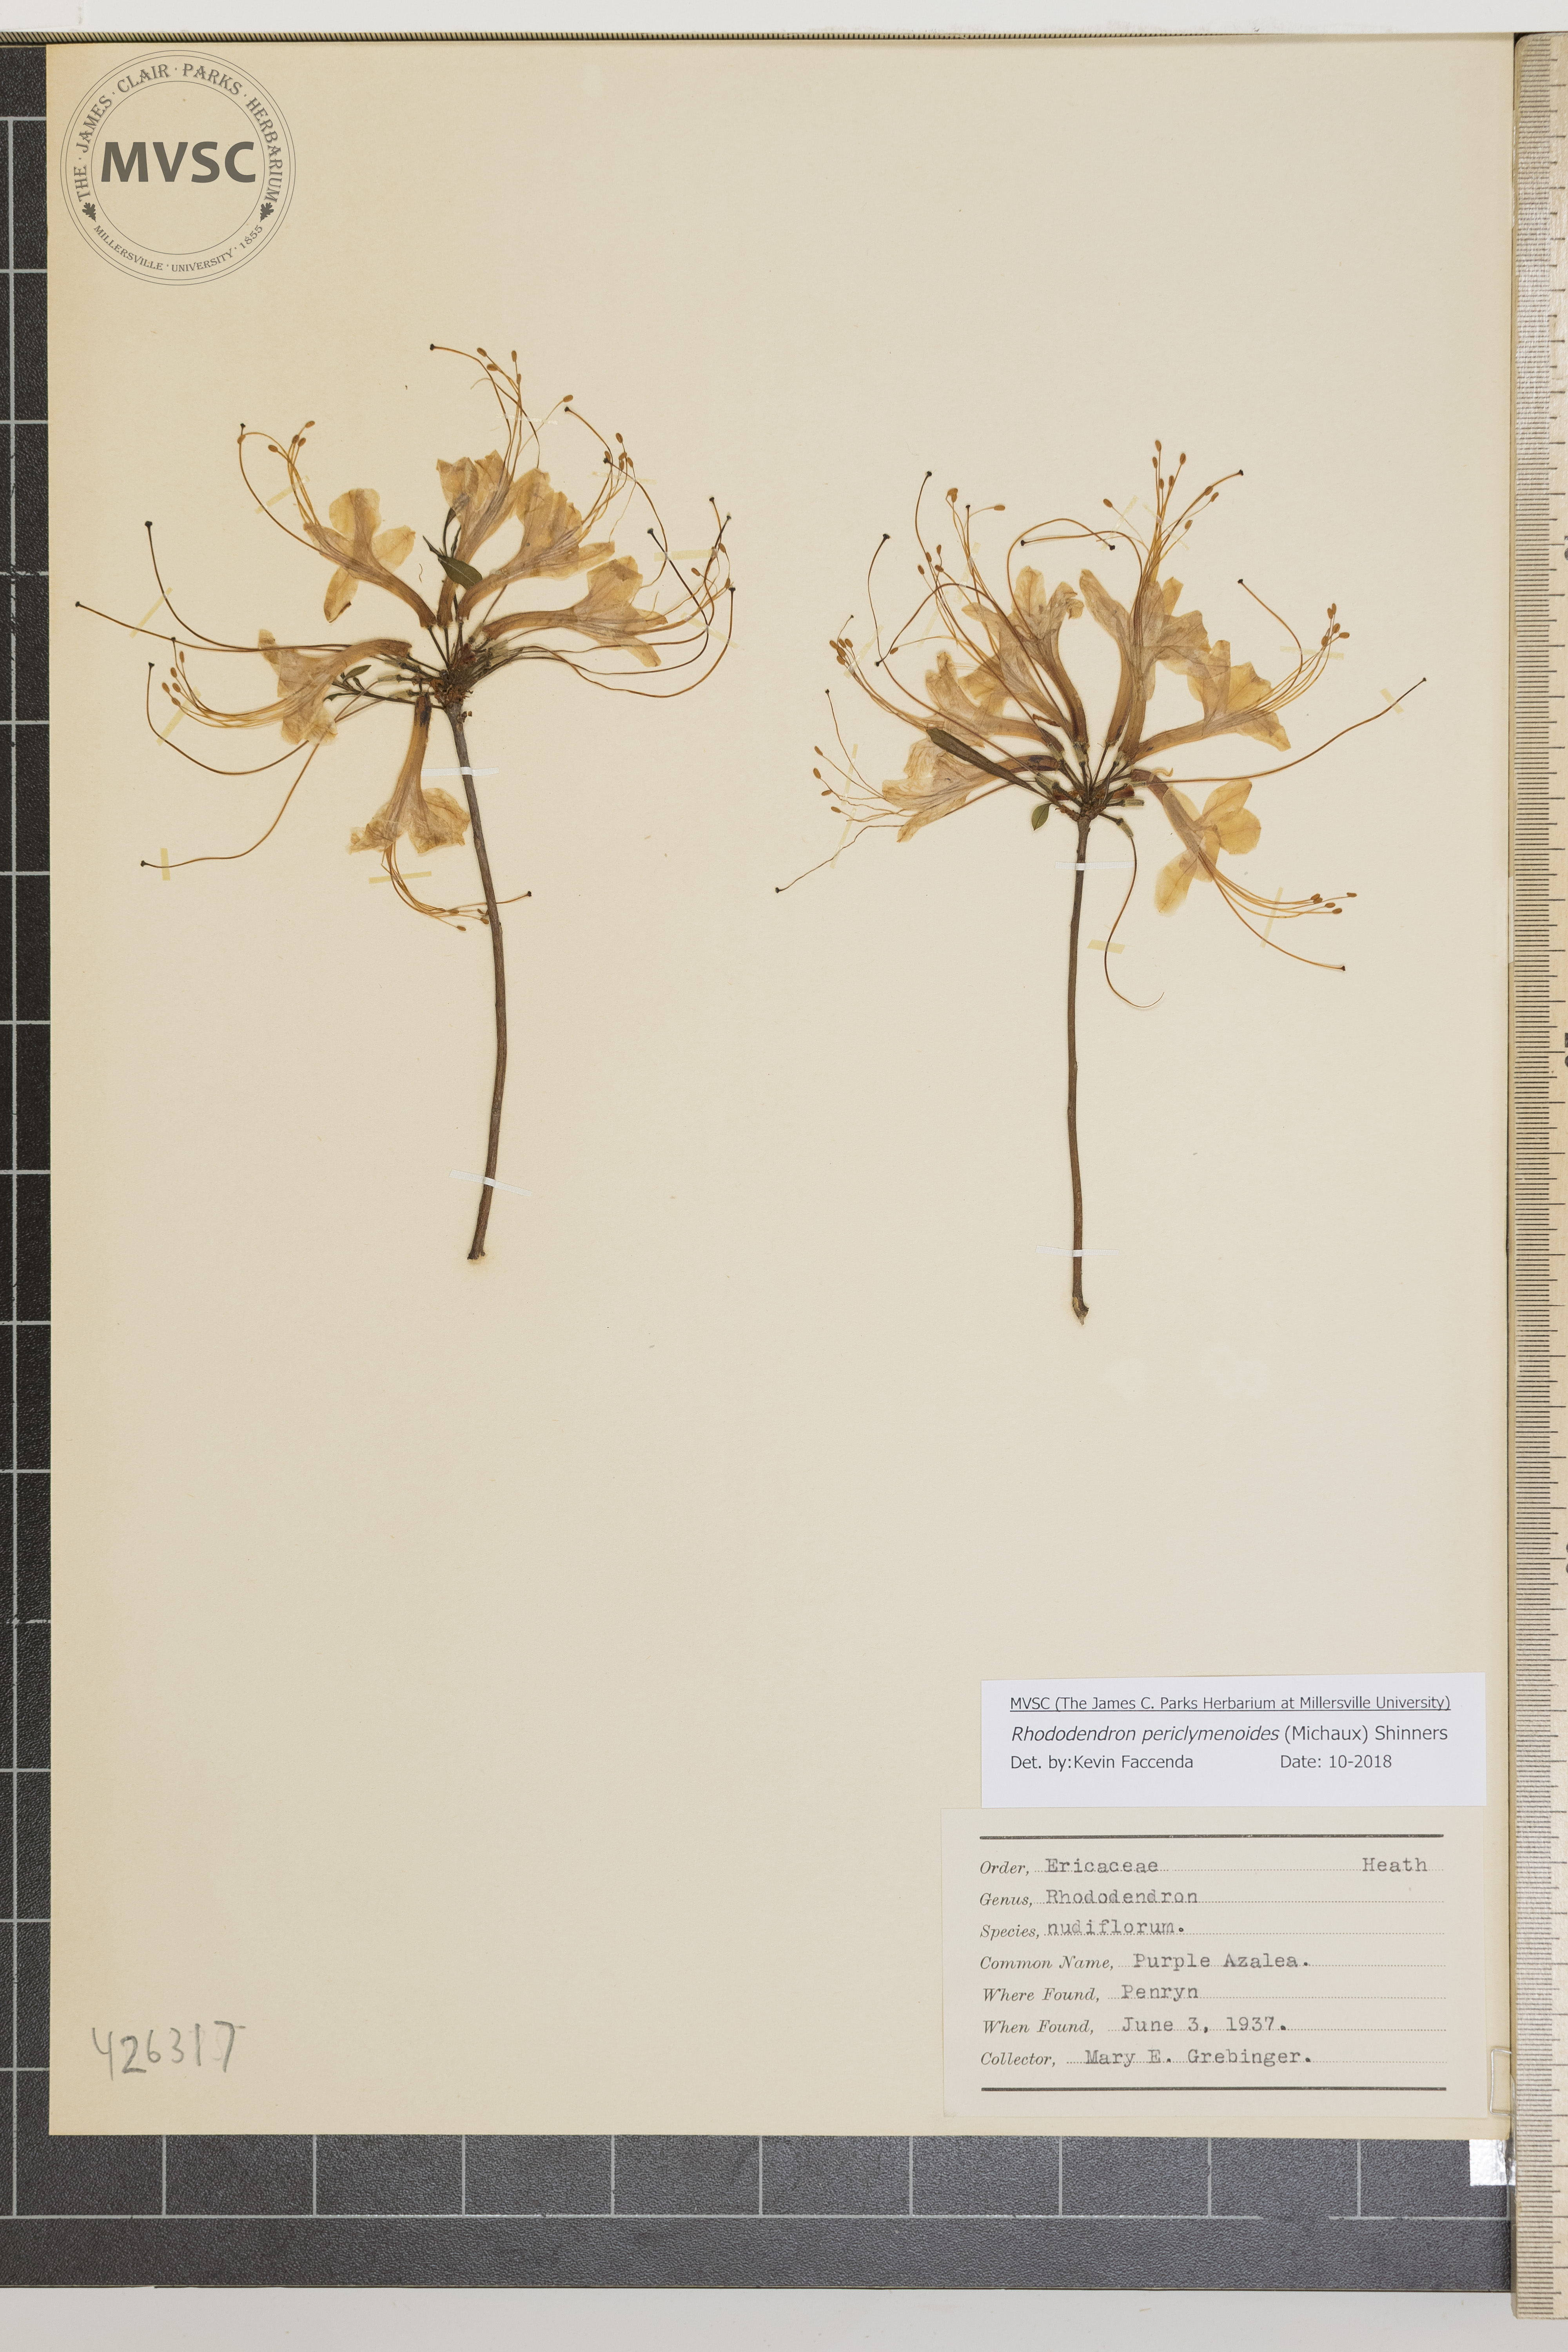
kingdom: Plantae
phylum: Tracheophyta
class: Magnoliopsida
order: Ericales
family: Ericaceae
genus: Rhododendron
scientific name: Rhododendron periclymenoides
